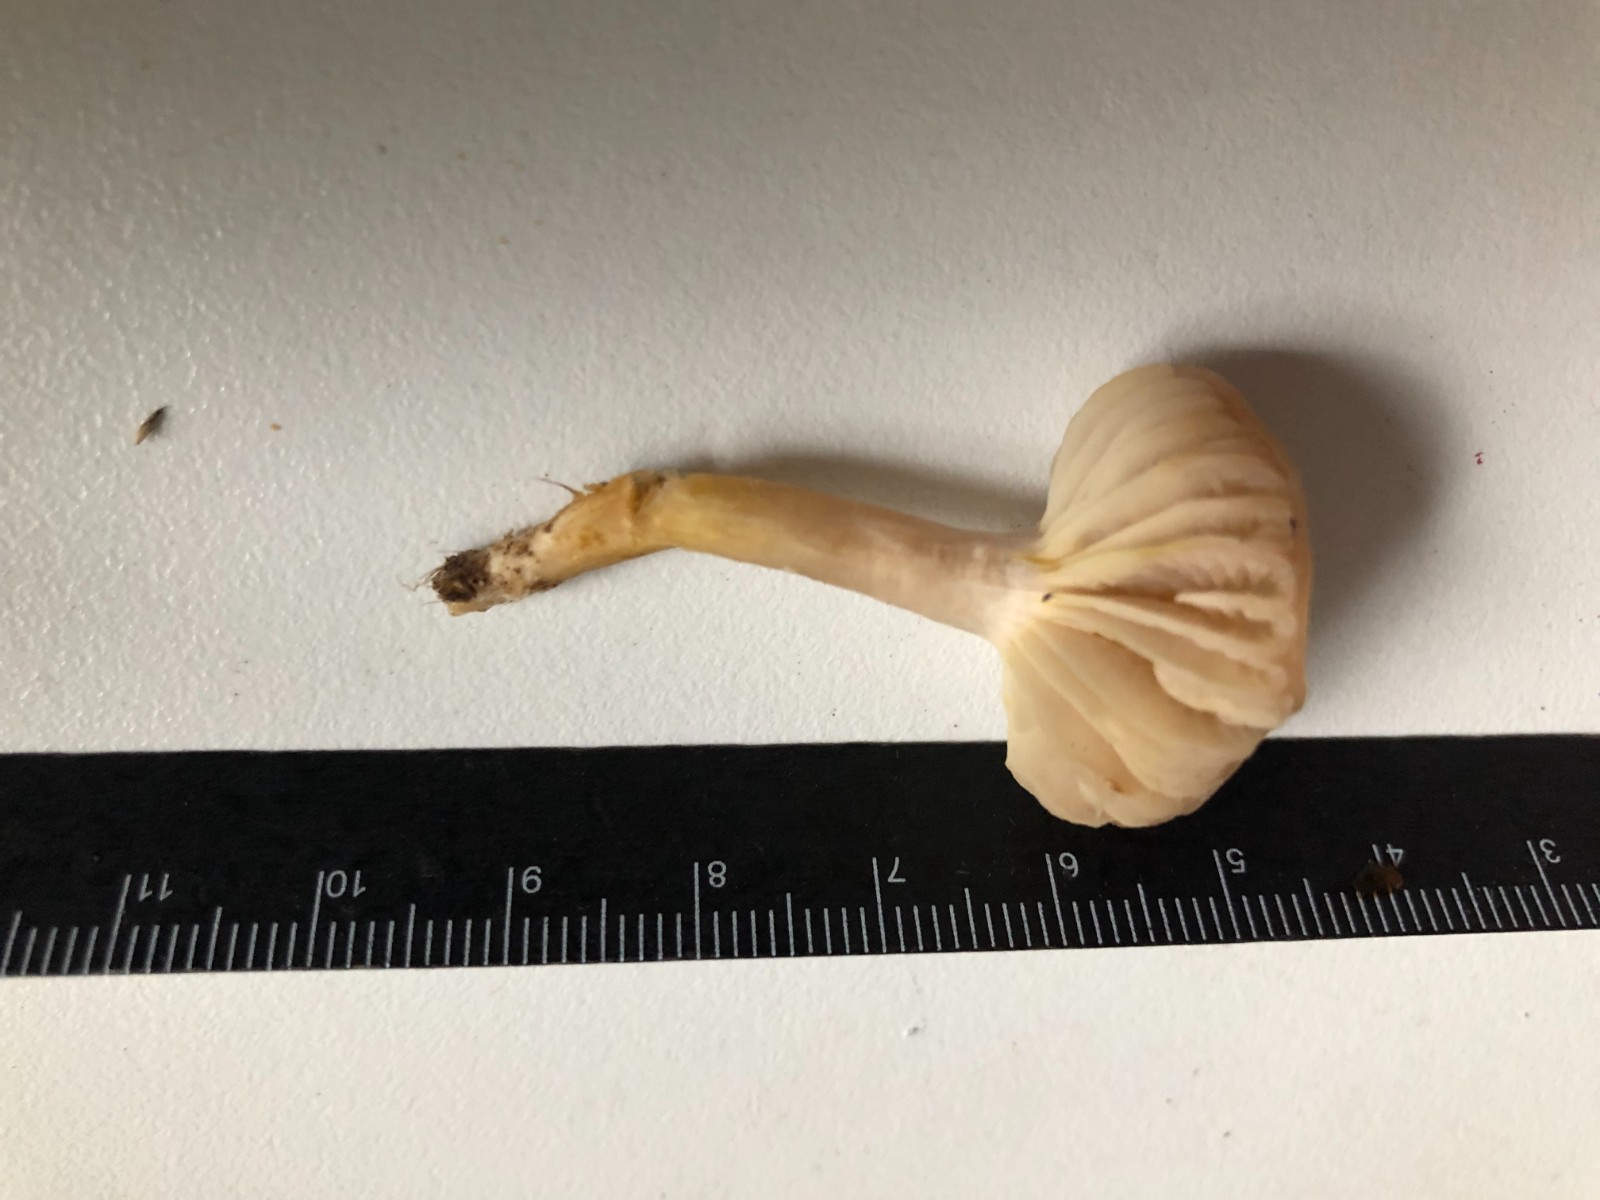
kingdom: Fungi
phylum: Basidiomycota
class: Agaricomycetes
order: Agaricales
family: Hygrophoraceae
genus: Cuphophyllus
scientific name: Cuphophyllus flavipes
